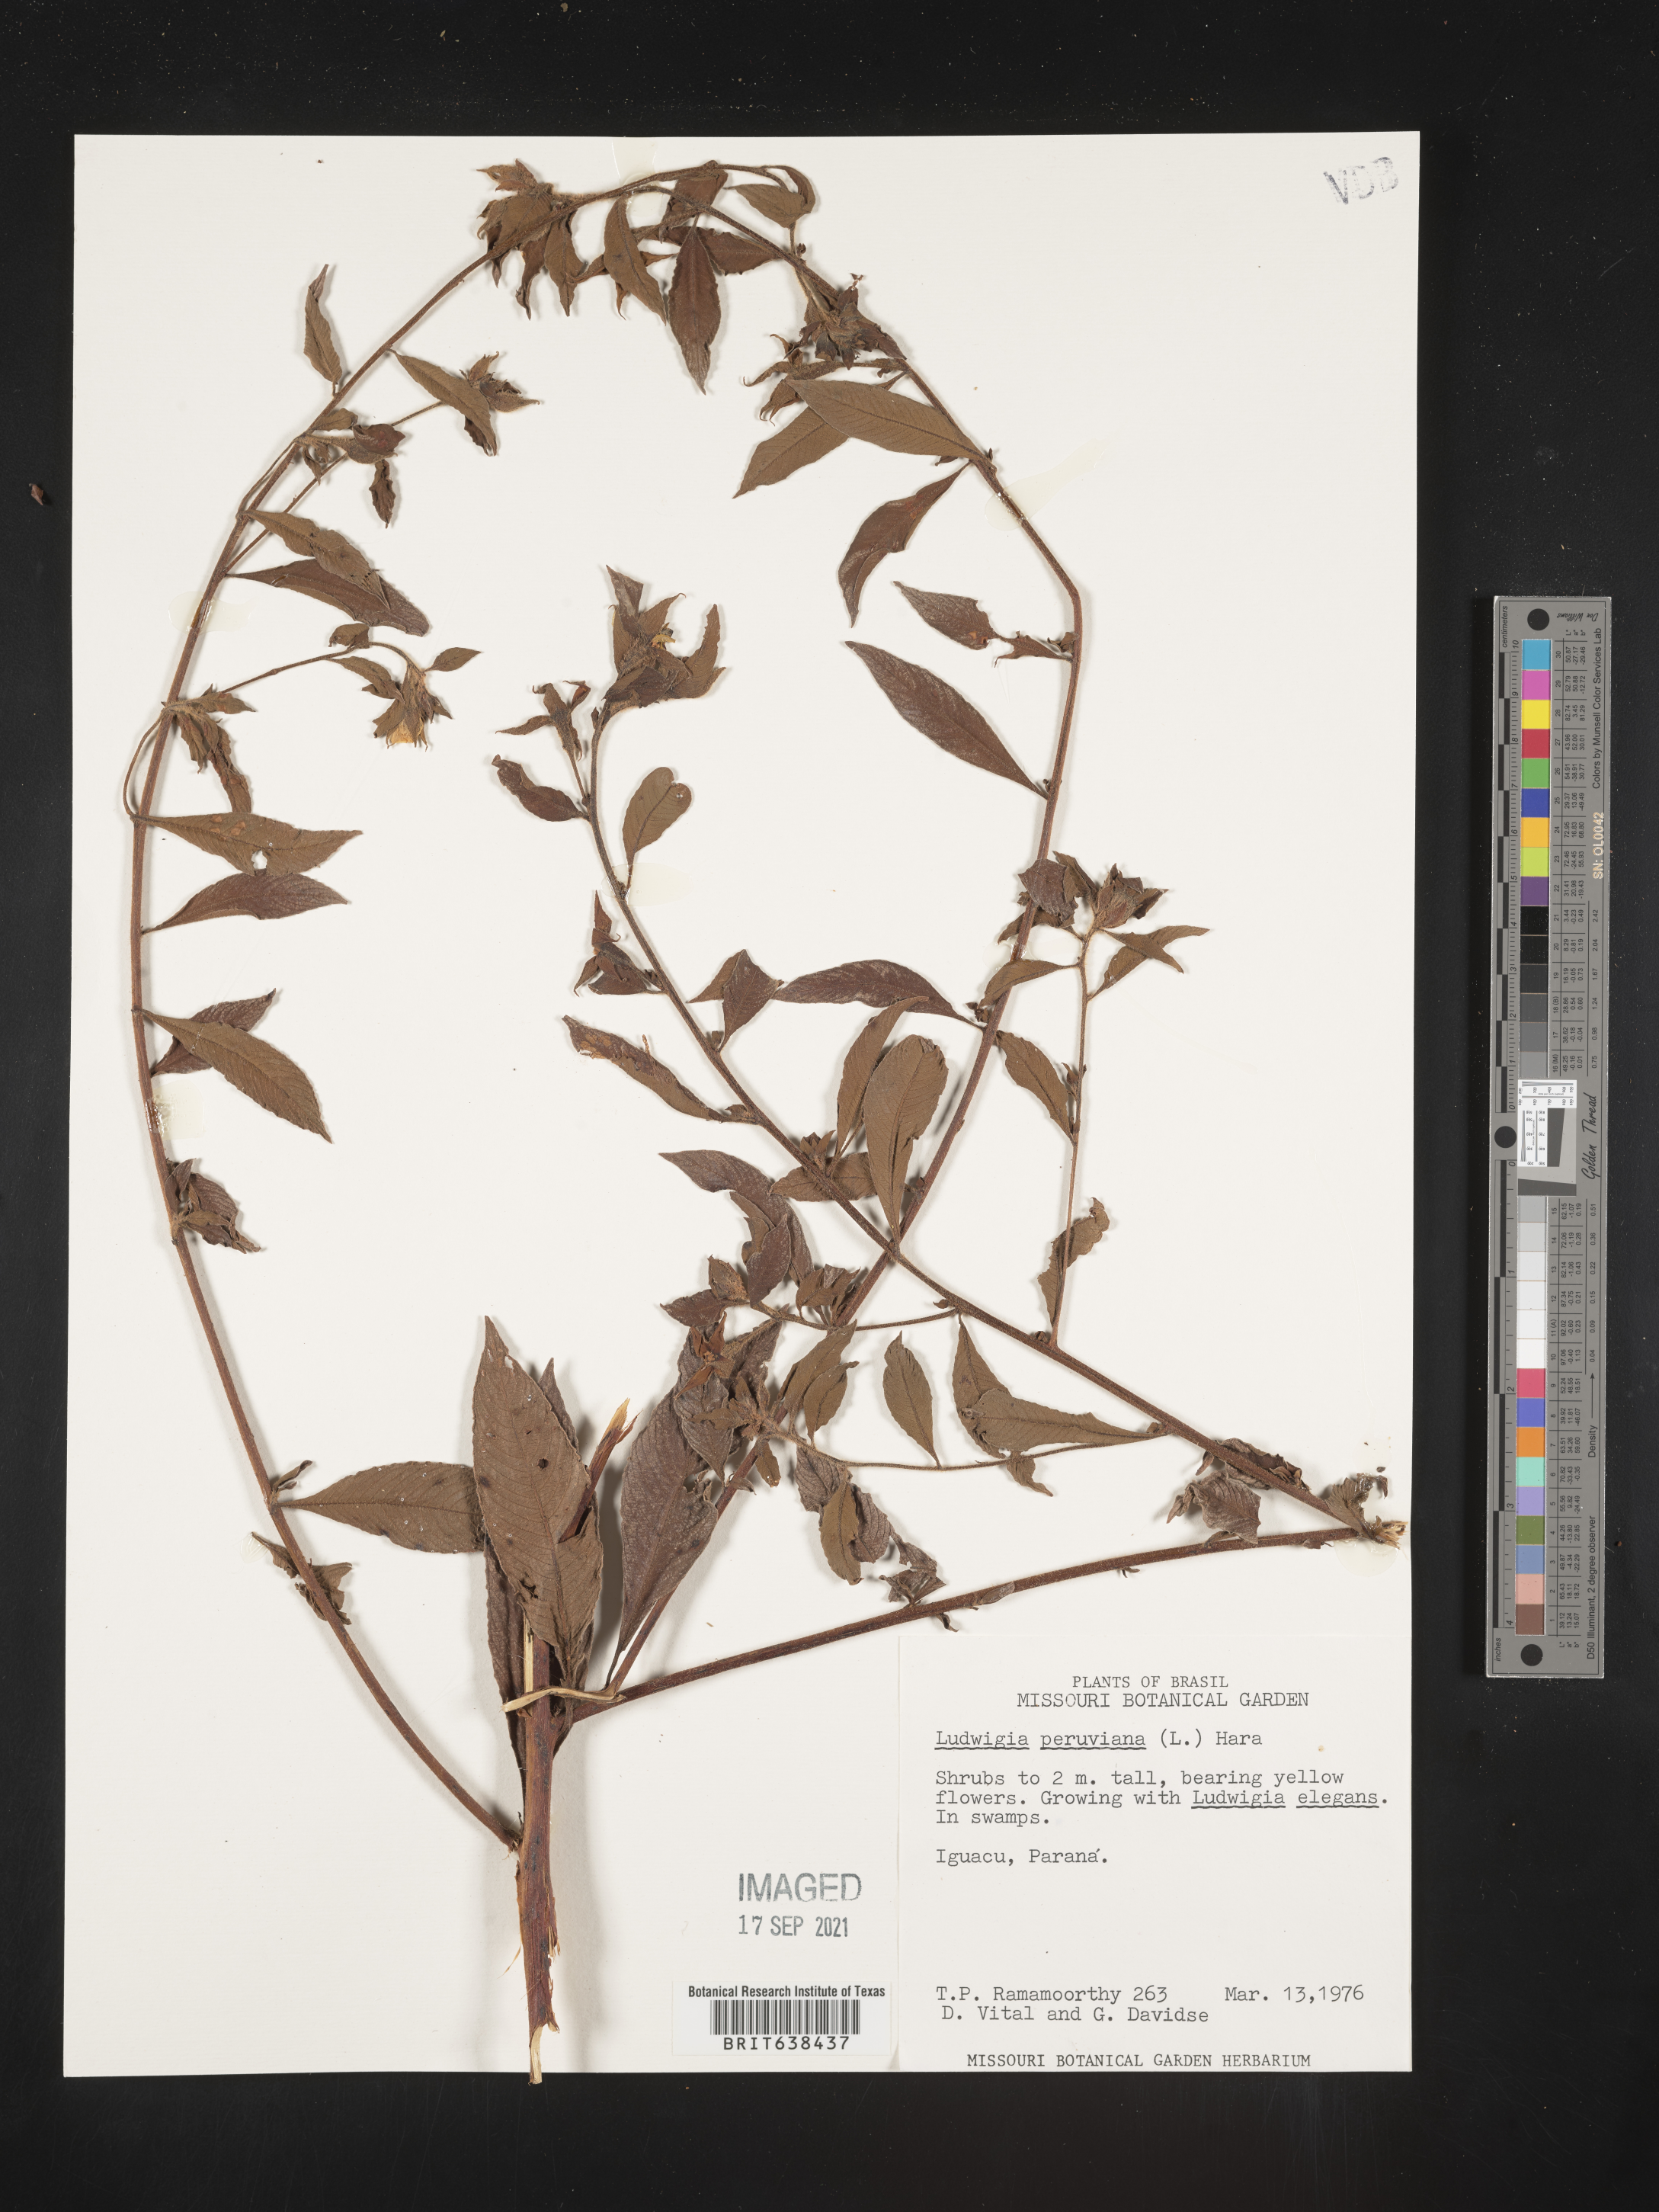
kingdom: Plantae
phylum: Tracheophyta
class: Magnoliopsida
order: Myrtales
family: Onagraceae
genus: Ludwigia
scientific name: Ludwigia
